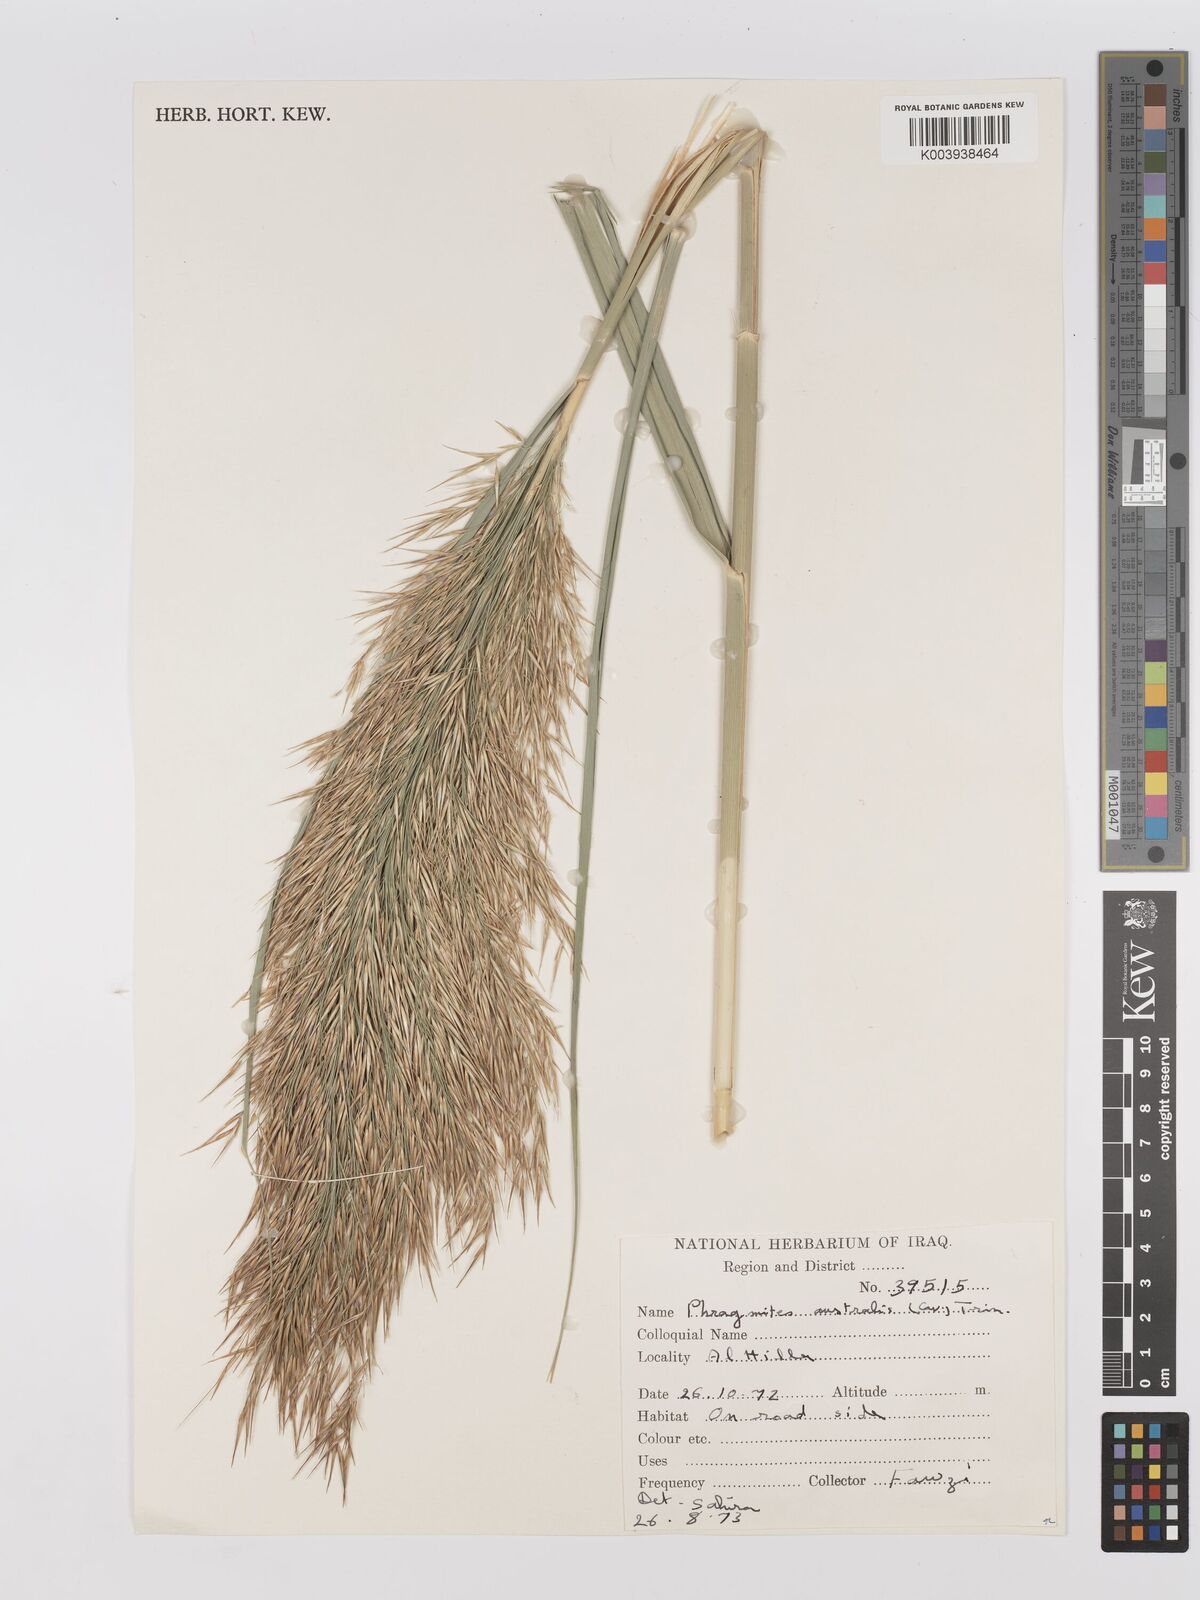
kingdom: Plantae
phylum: Tracheophyta
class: Liliopsida
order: Poales
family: Poaceae
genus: Phragmites
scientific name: Phragmites australis
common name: Common reed
